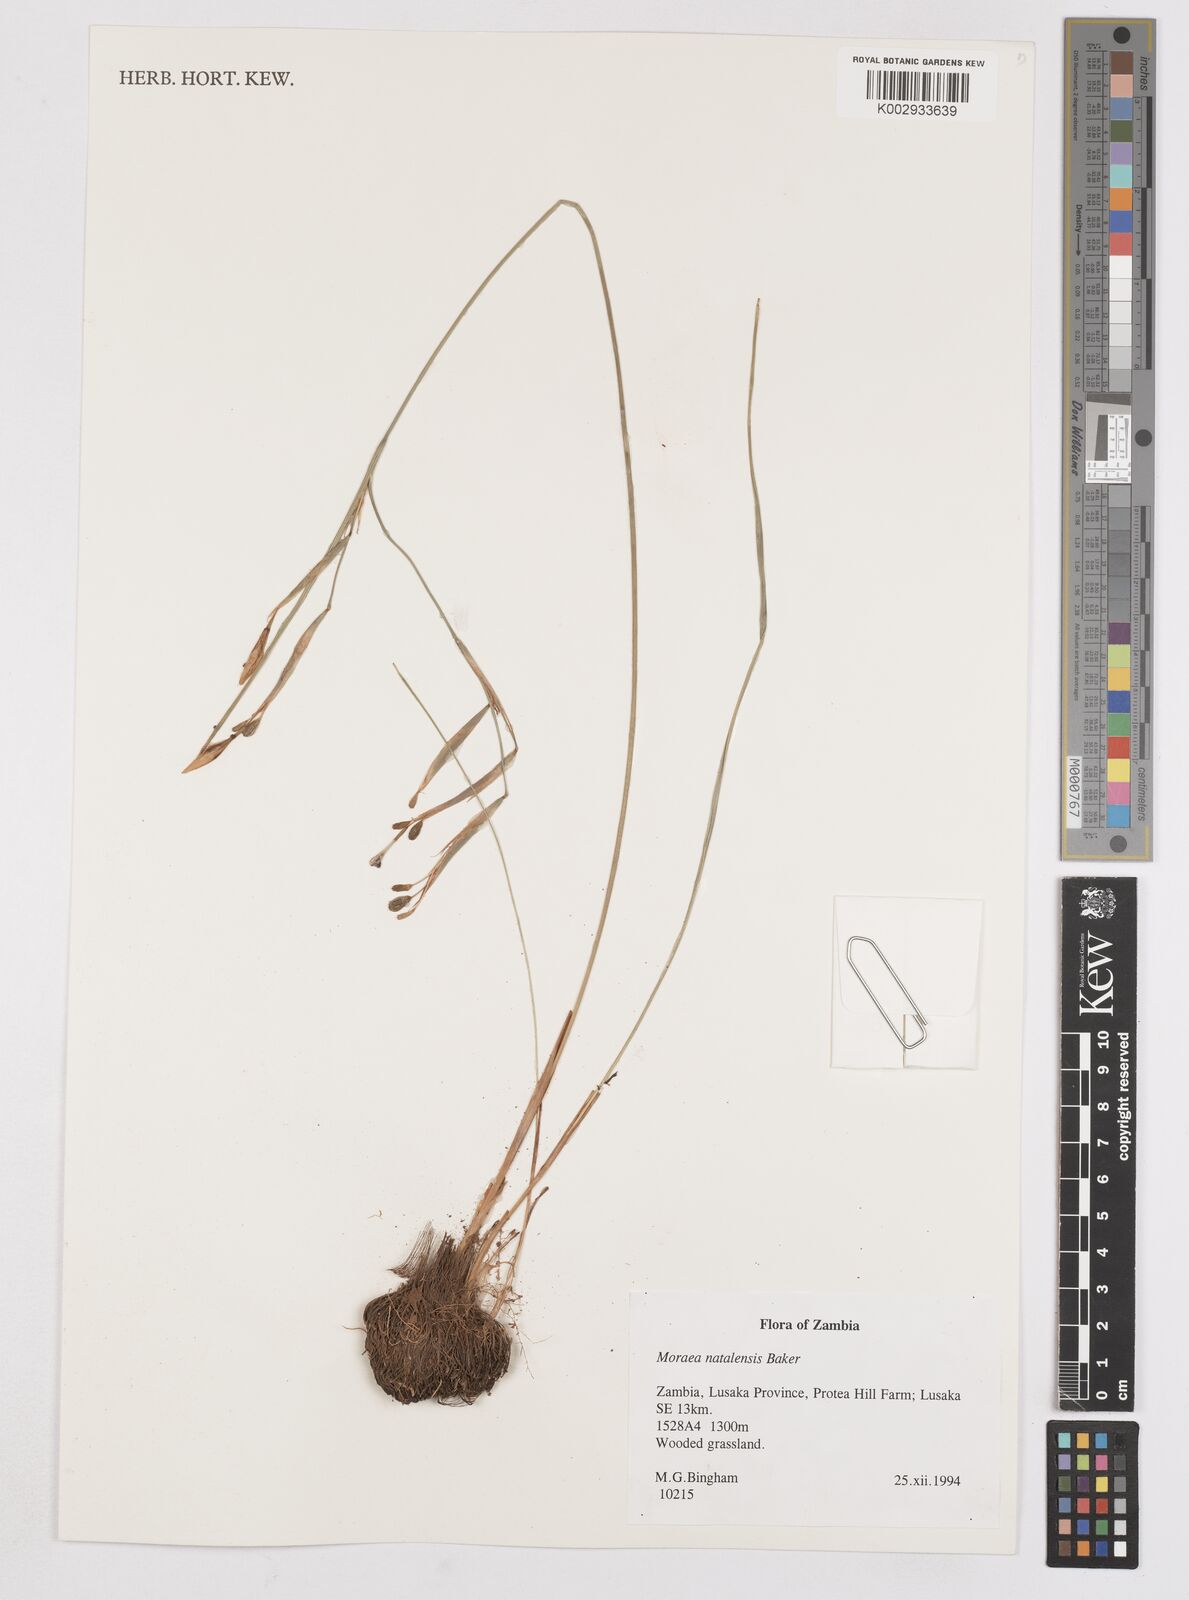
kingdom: Plantae
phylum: Tracheophyta
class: Liliopsida
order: Asparagales
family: Iridaceae
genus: Moraea
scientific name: Moraea natalensis
